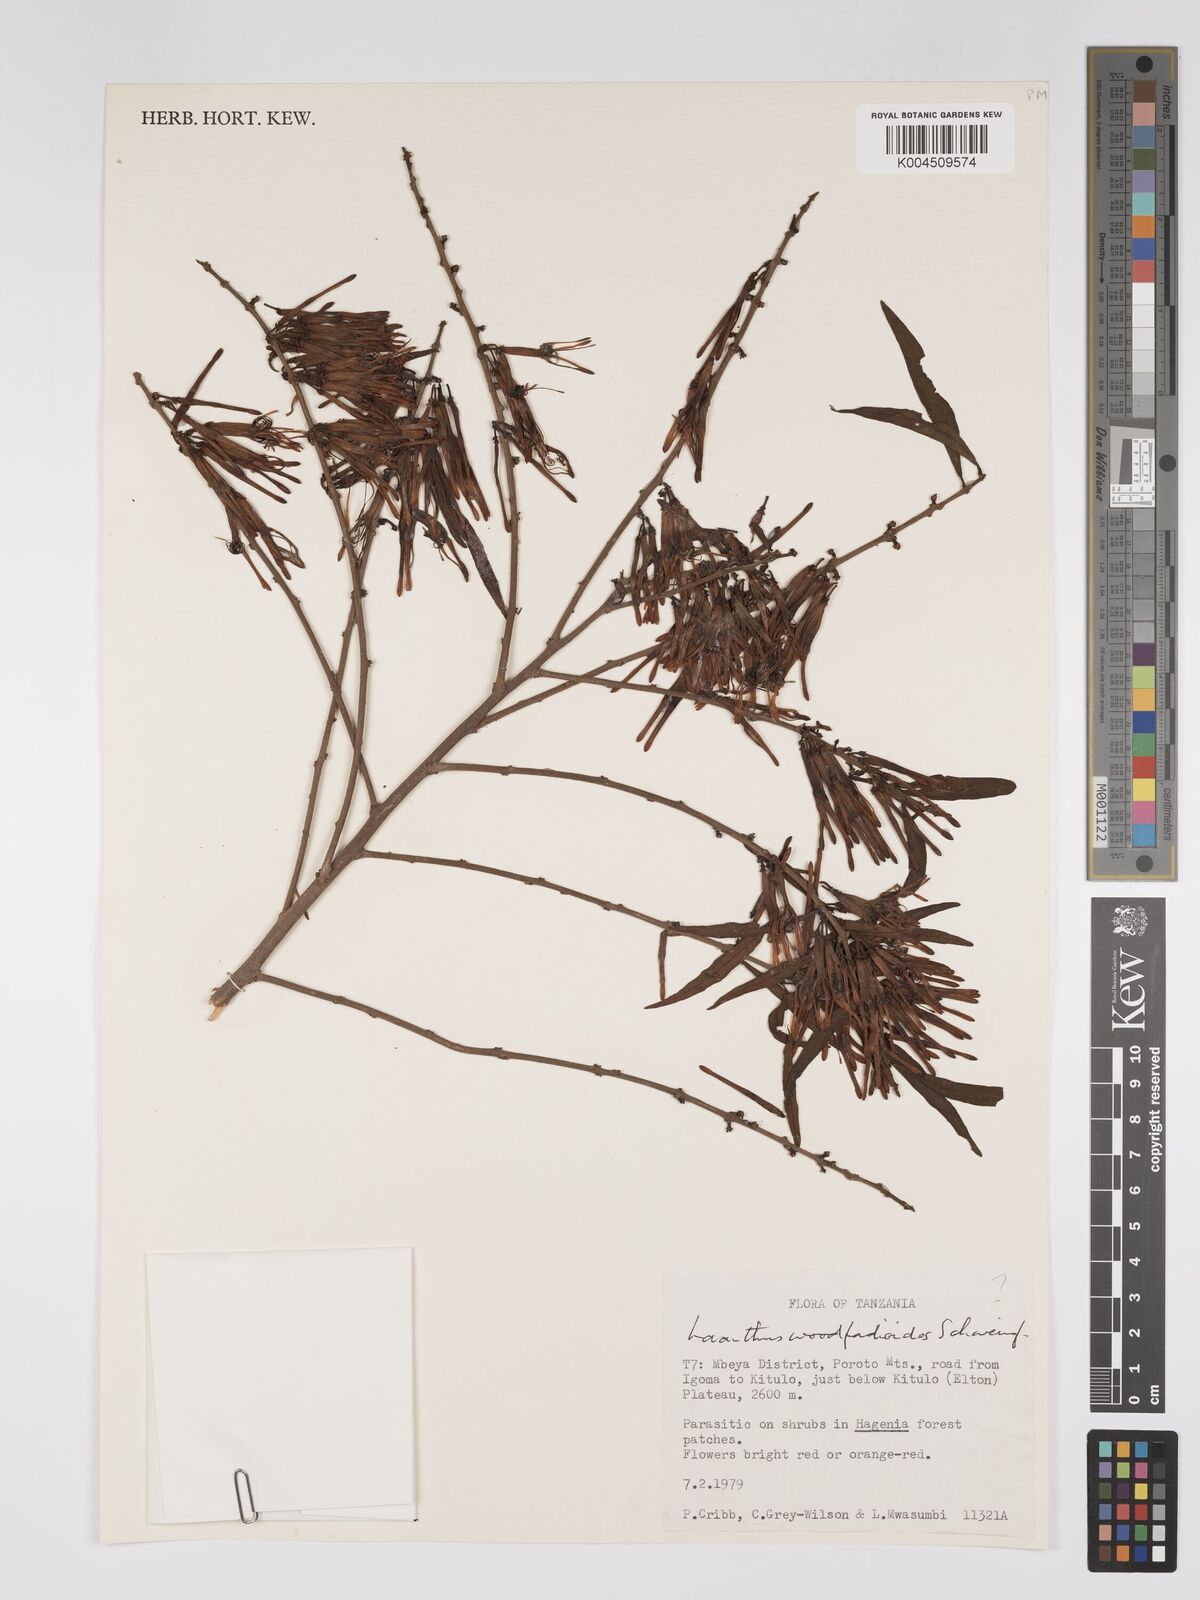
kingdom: Plantae
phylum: Tracheophyta
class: Magnoliopsida
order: Santalales
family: Loranthaceae
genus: Englerina
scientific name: Englerina inaequilatera
